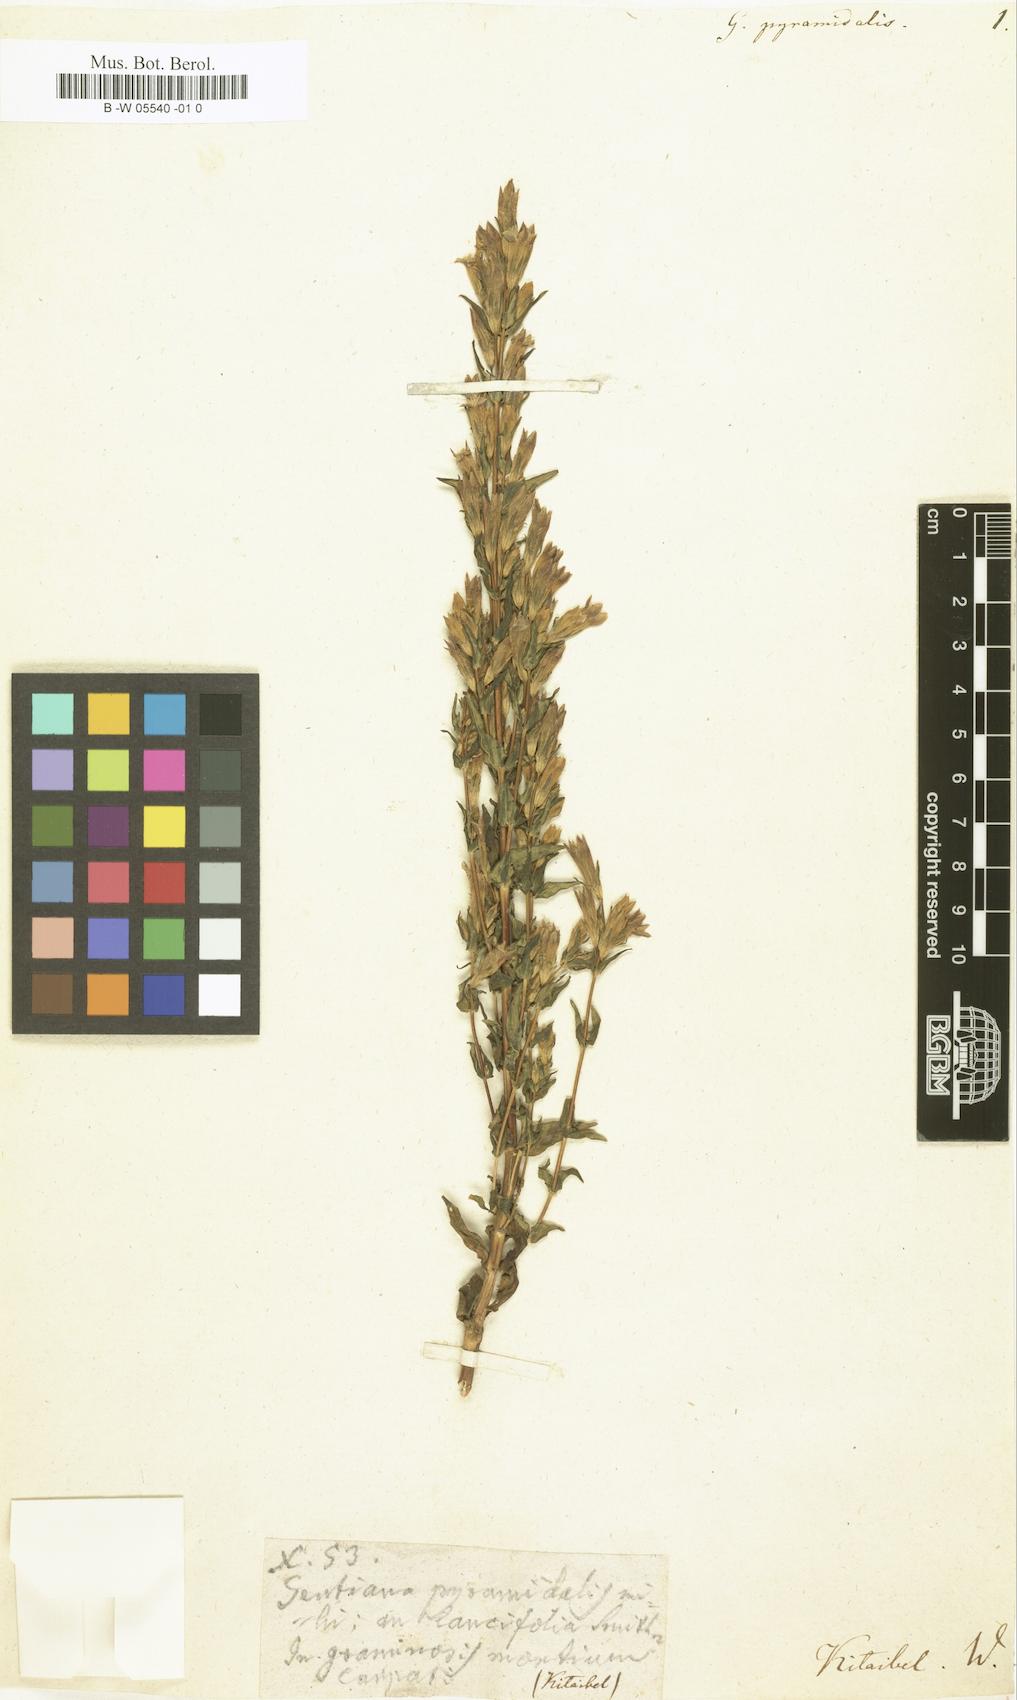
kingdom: Plantae
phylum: Tracheophyta
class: Magnoliopsida
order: Gentianales
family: Gentianaceae
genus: Gentianella
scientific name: Gentianella
